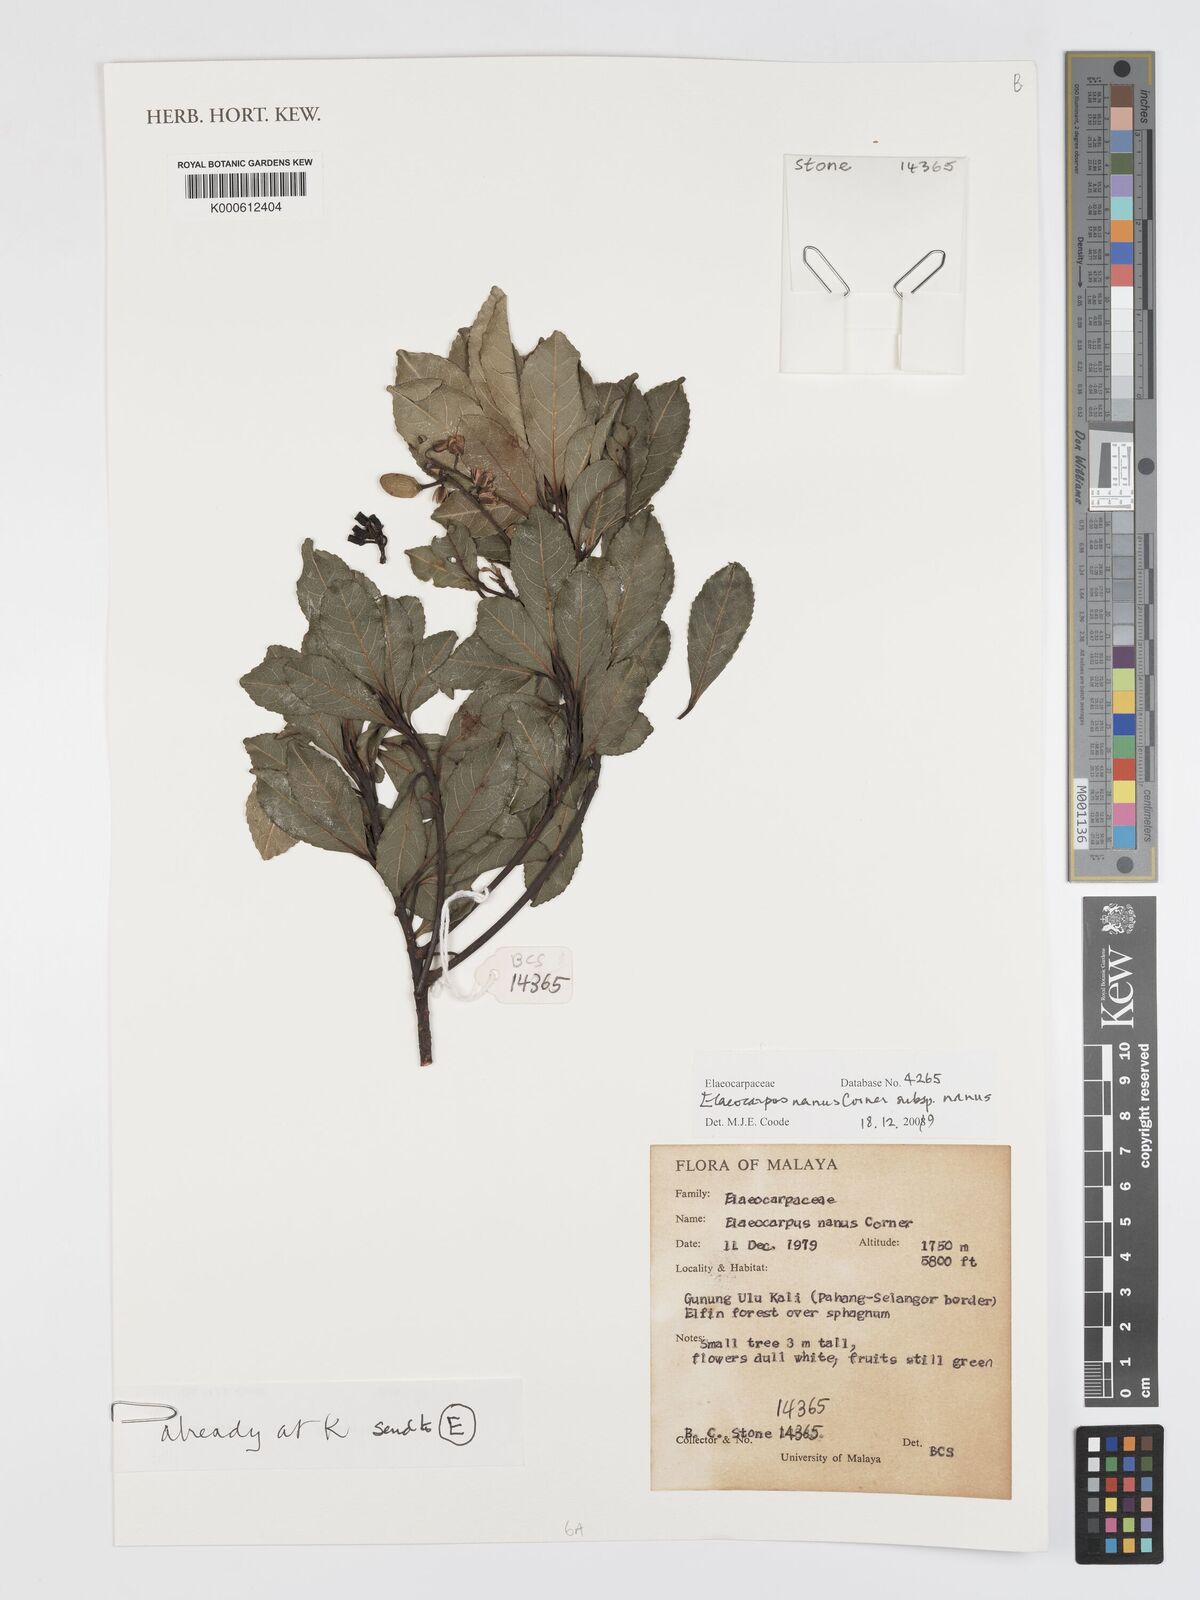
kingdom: Plantae
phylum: Tracheophyta
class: Magnoliopsida
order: Oxalidales
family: Elaeocarpaceae
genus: Elaeocarpus
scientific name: Elaeocarpus nanus
